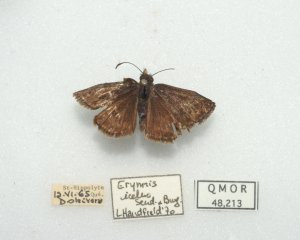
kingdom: Animalia
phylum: Arthropoda
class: Insecta
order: Lepidoptera
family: Hesperiidae
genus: Erynnis
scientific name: Erynnis icelus
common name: Dreamy Duskywing
